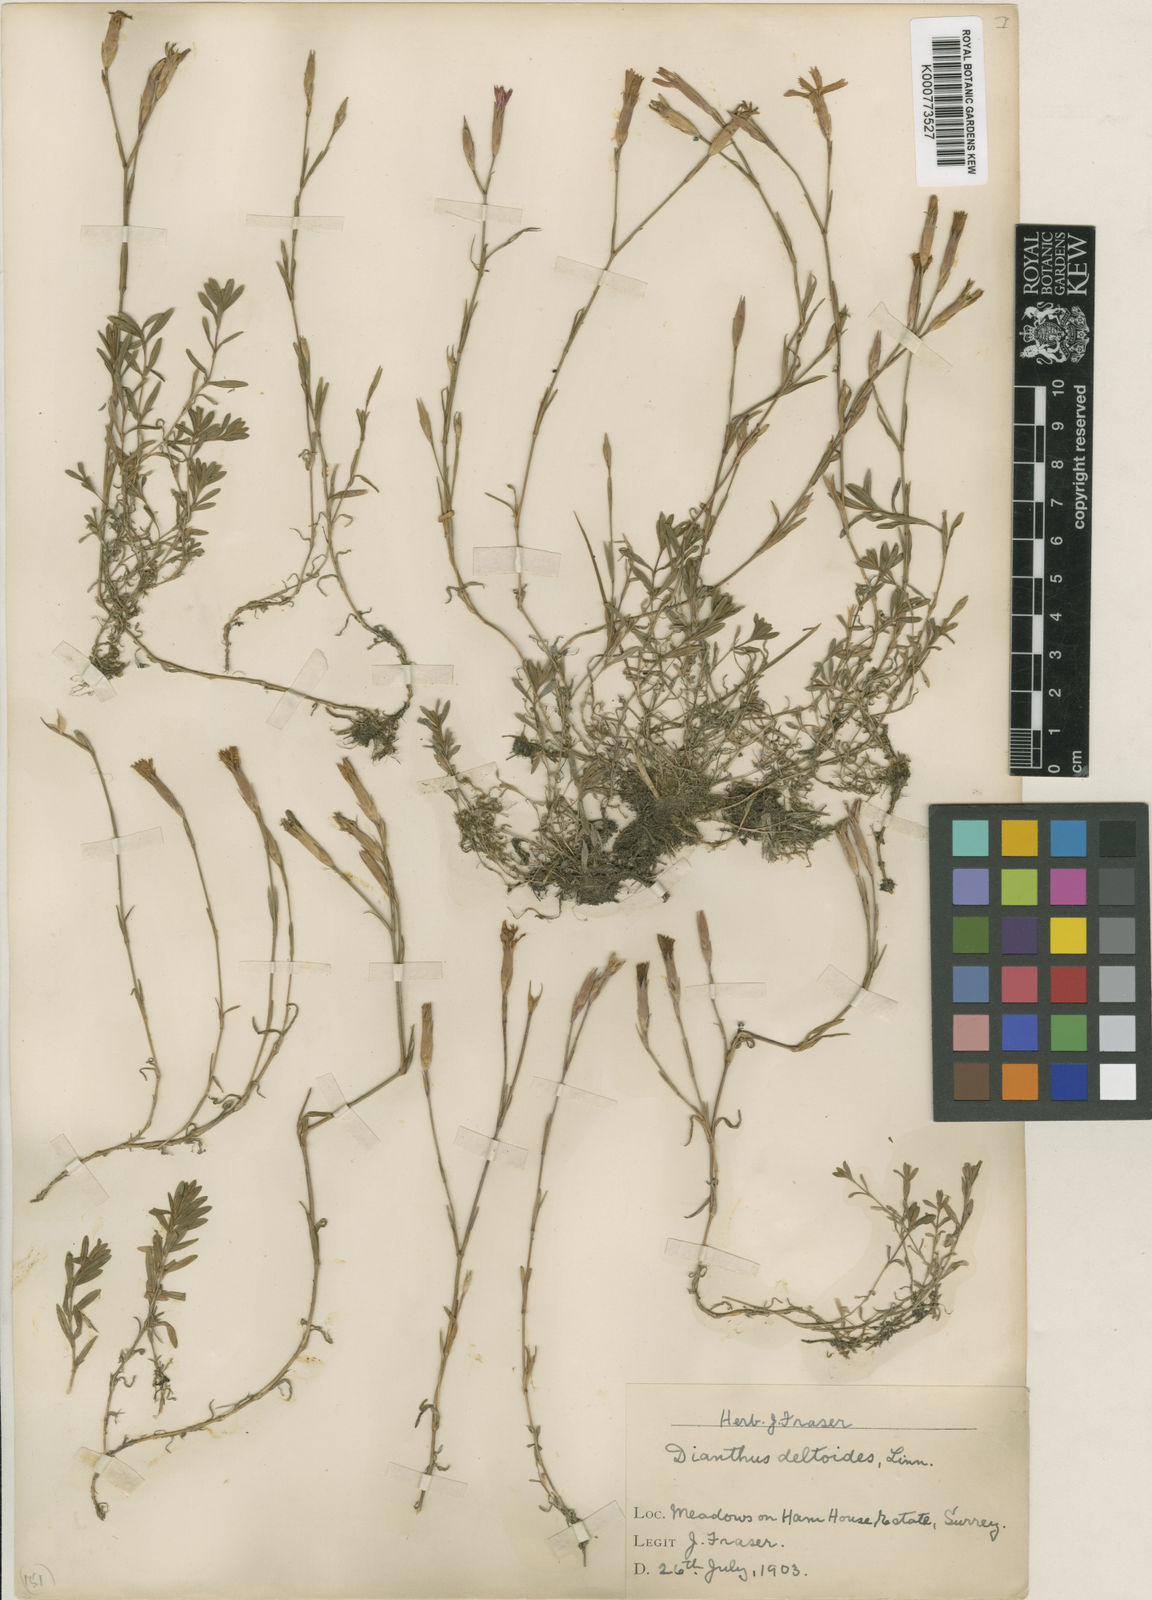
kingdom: Plantae
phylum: Tracheophyta
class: Magnoliopsida
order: Caryophyllales
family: Caryophyllaceae
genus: Dianthus
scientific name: Dianthus deltoides
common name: Maiden pink
